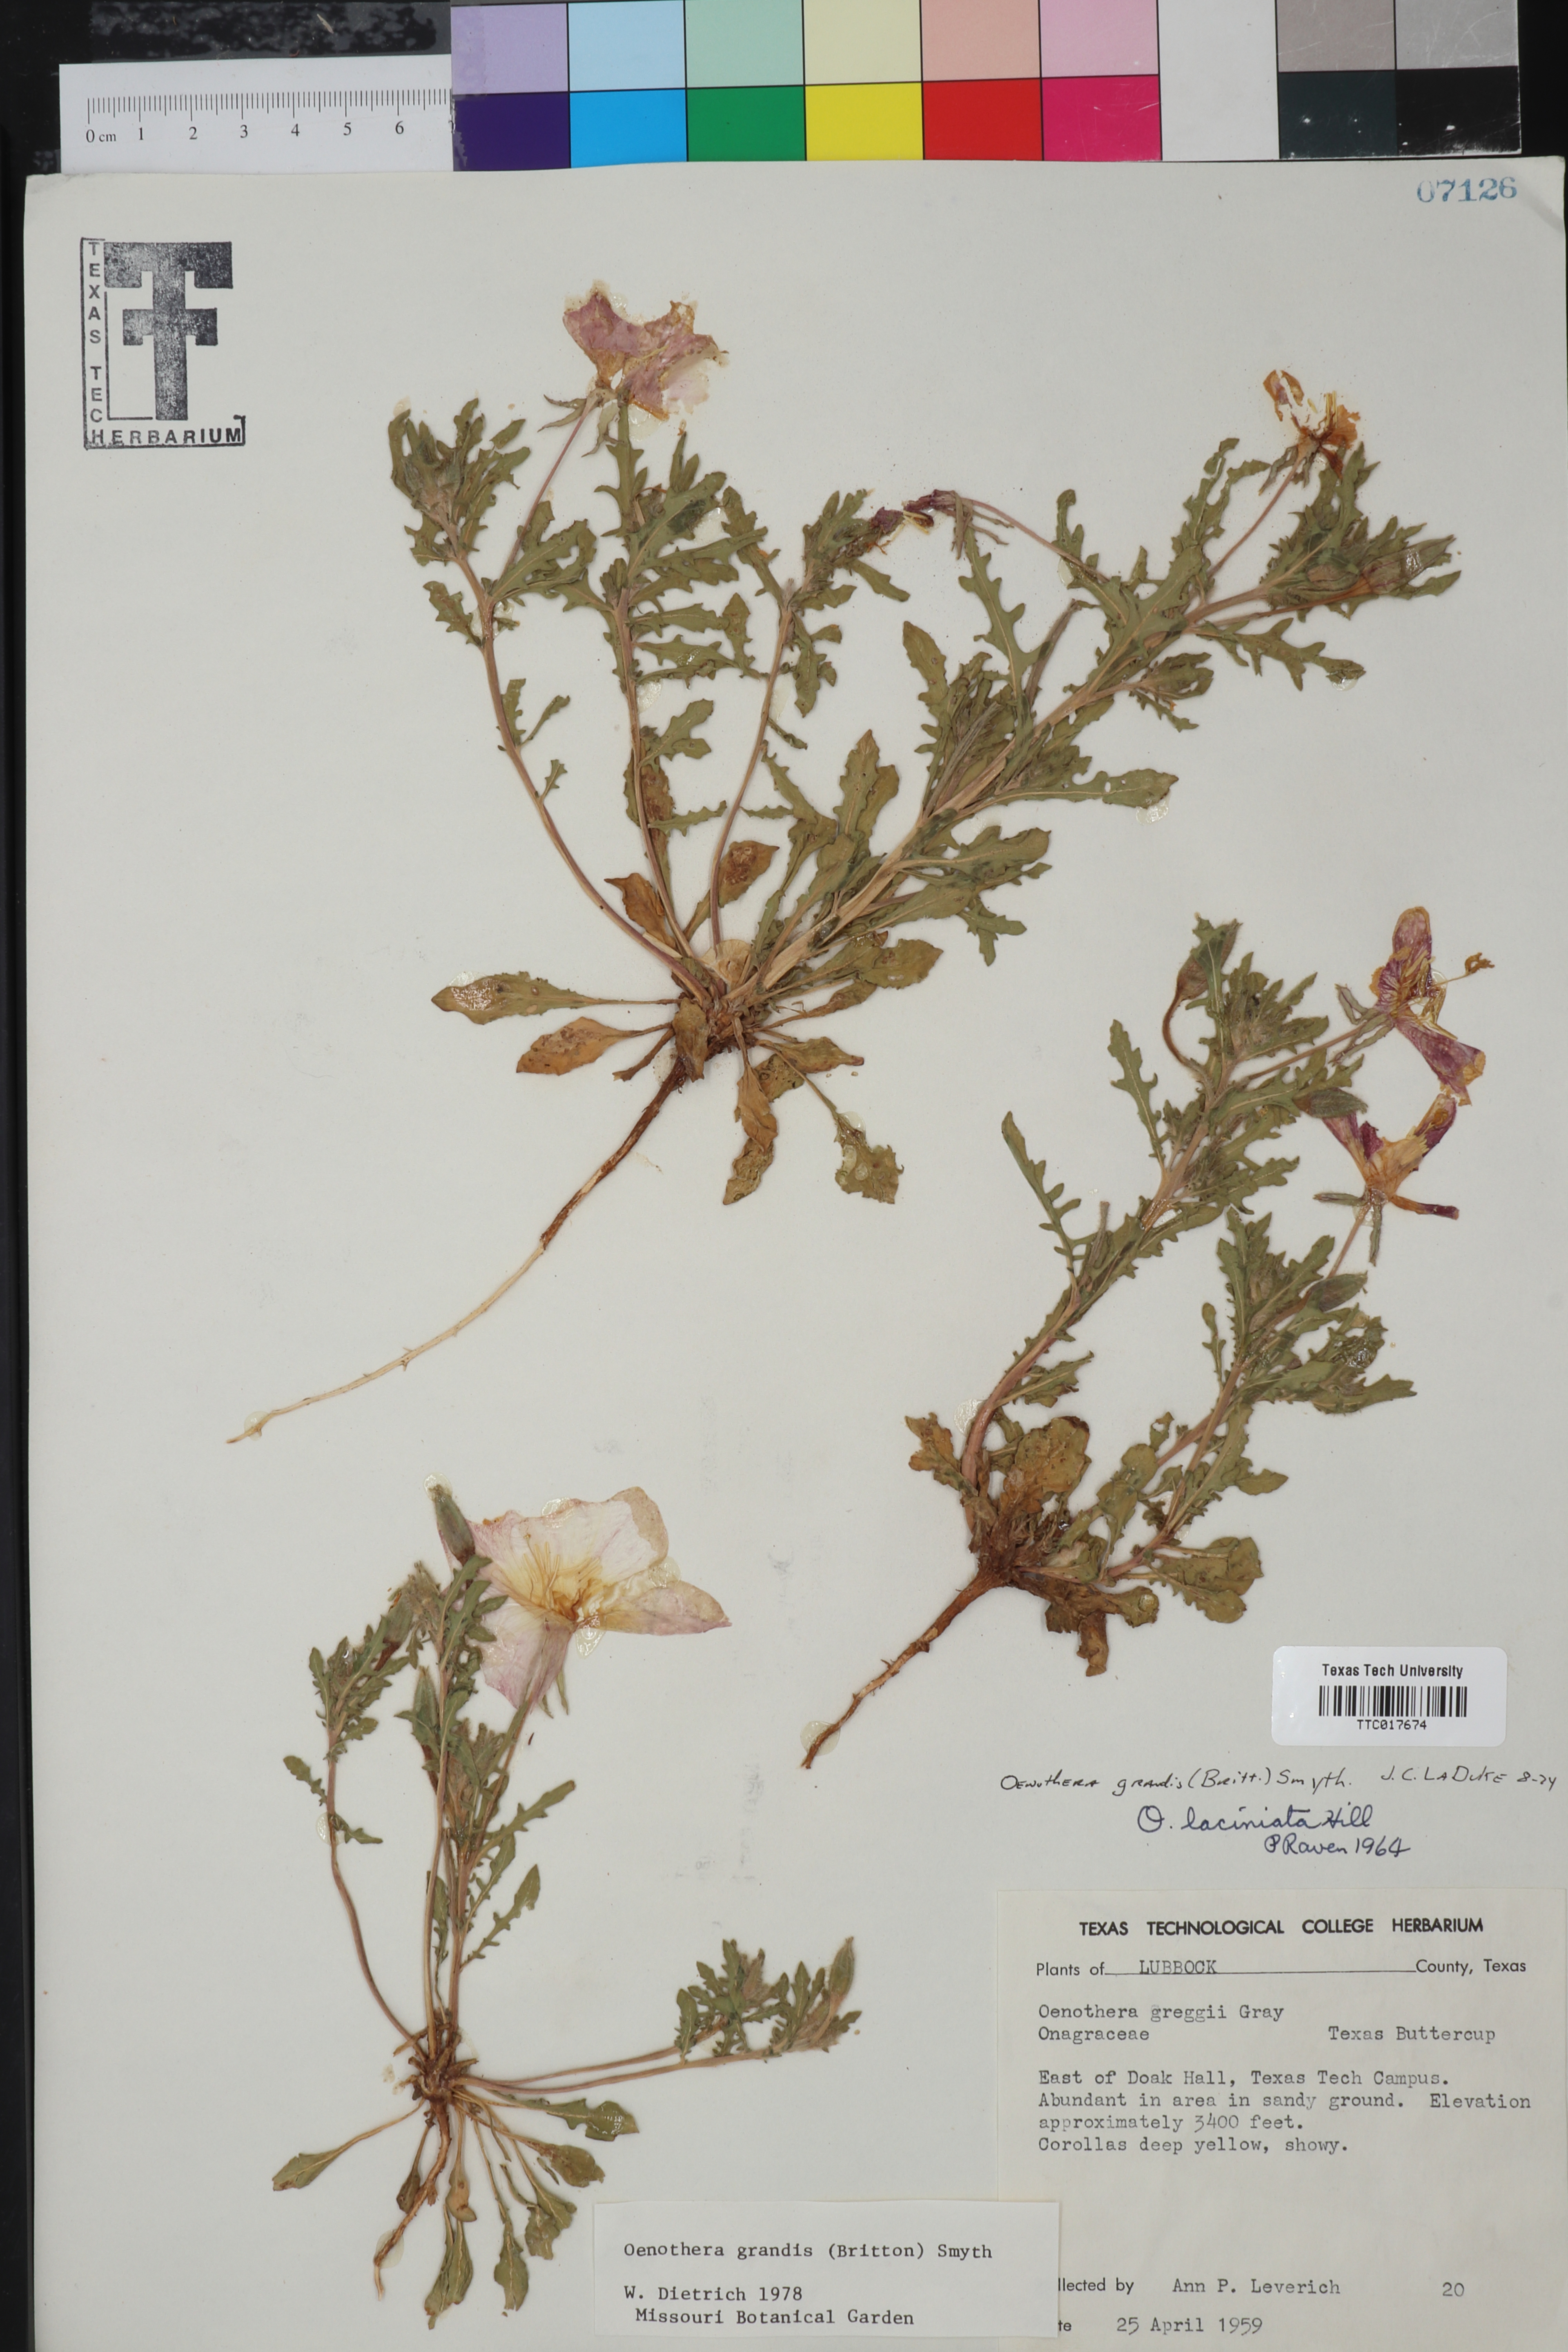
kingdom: Plantae
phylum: Tracheophyta
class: Magnoliopsida
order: Myrtales
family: Onagraceae
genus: Oenothera
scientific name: Oenothera grandis
